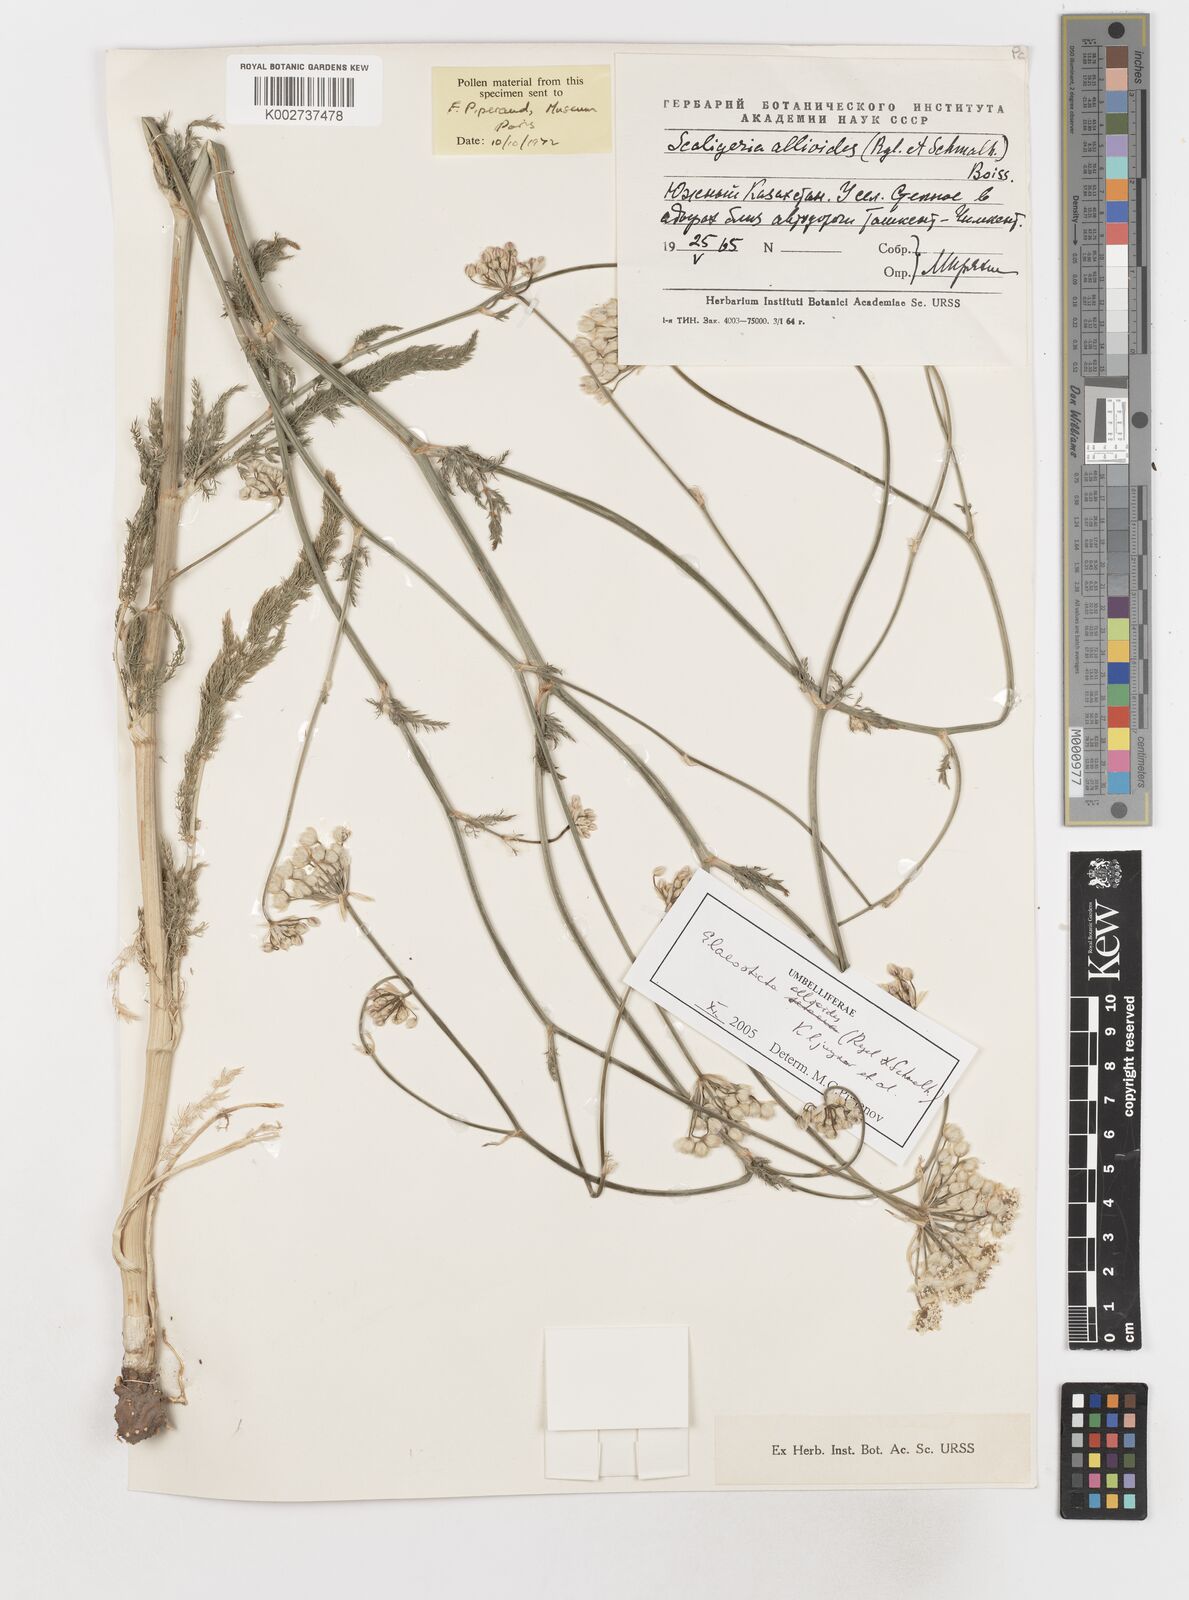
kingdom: Plantae
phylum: Tracheophyta
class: Magnoliopsida
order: Apiales
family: Apiaceae
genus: Scaligeria
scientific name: Scaligeria allioides
